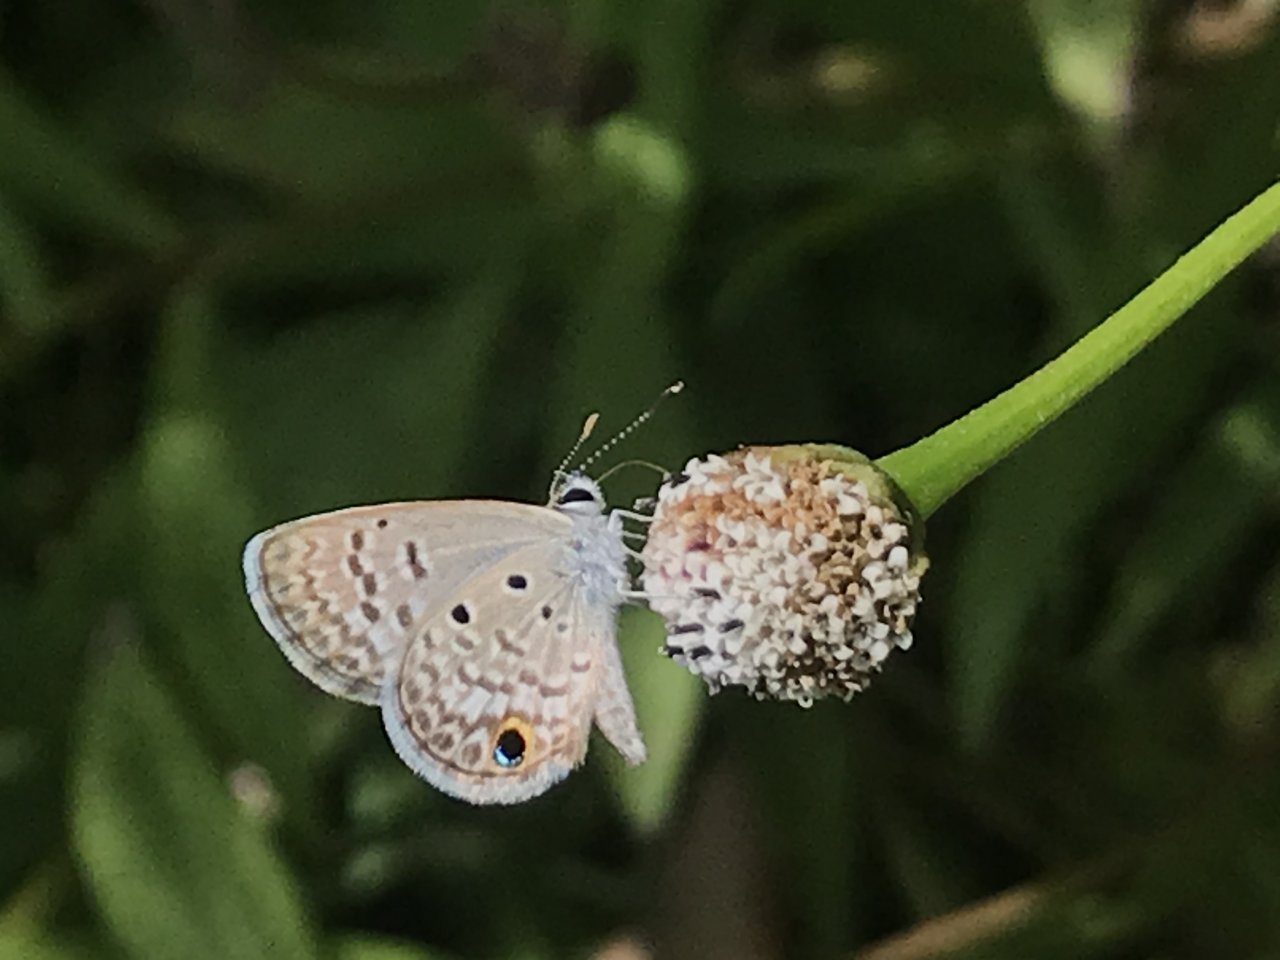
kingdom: Animalia
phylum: Arthropoda
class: Insecta
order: Lepidoptera
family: Lycaenidae
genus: Hemiargus
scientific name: Hemiargus ceraunus
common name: Ceraunus Blue
